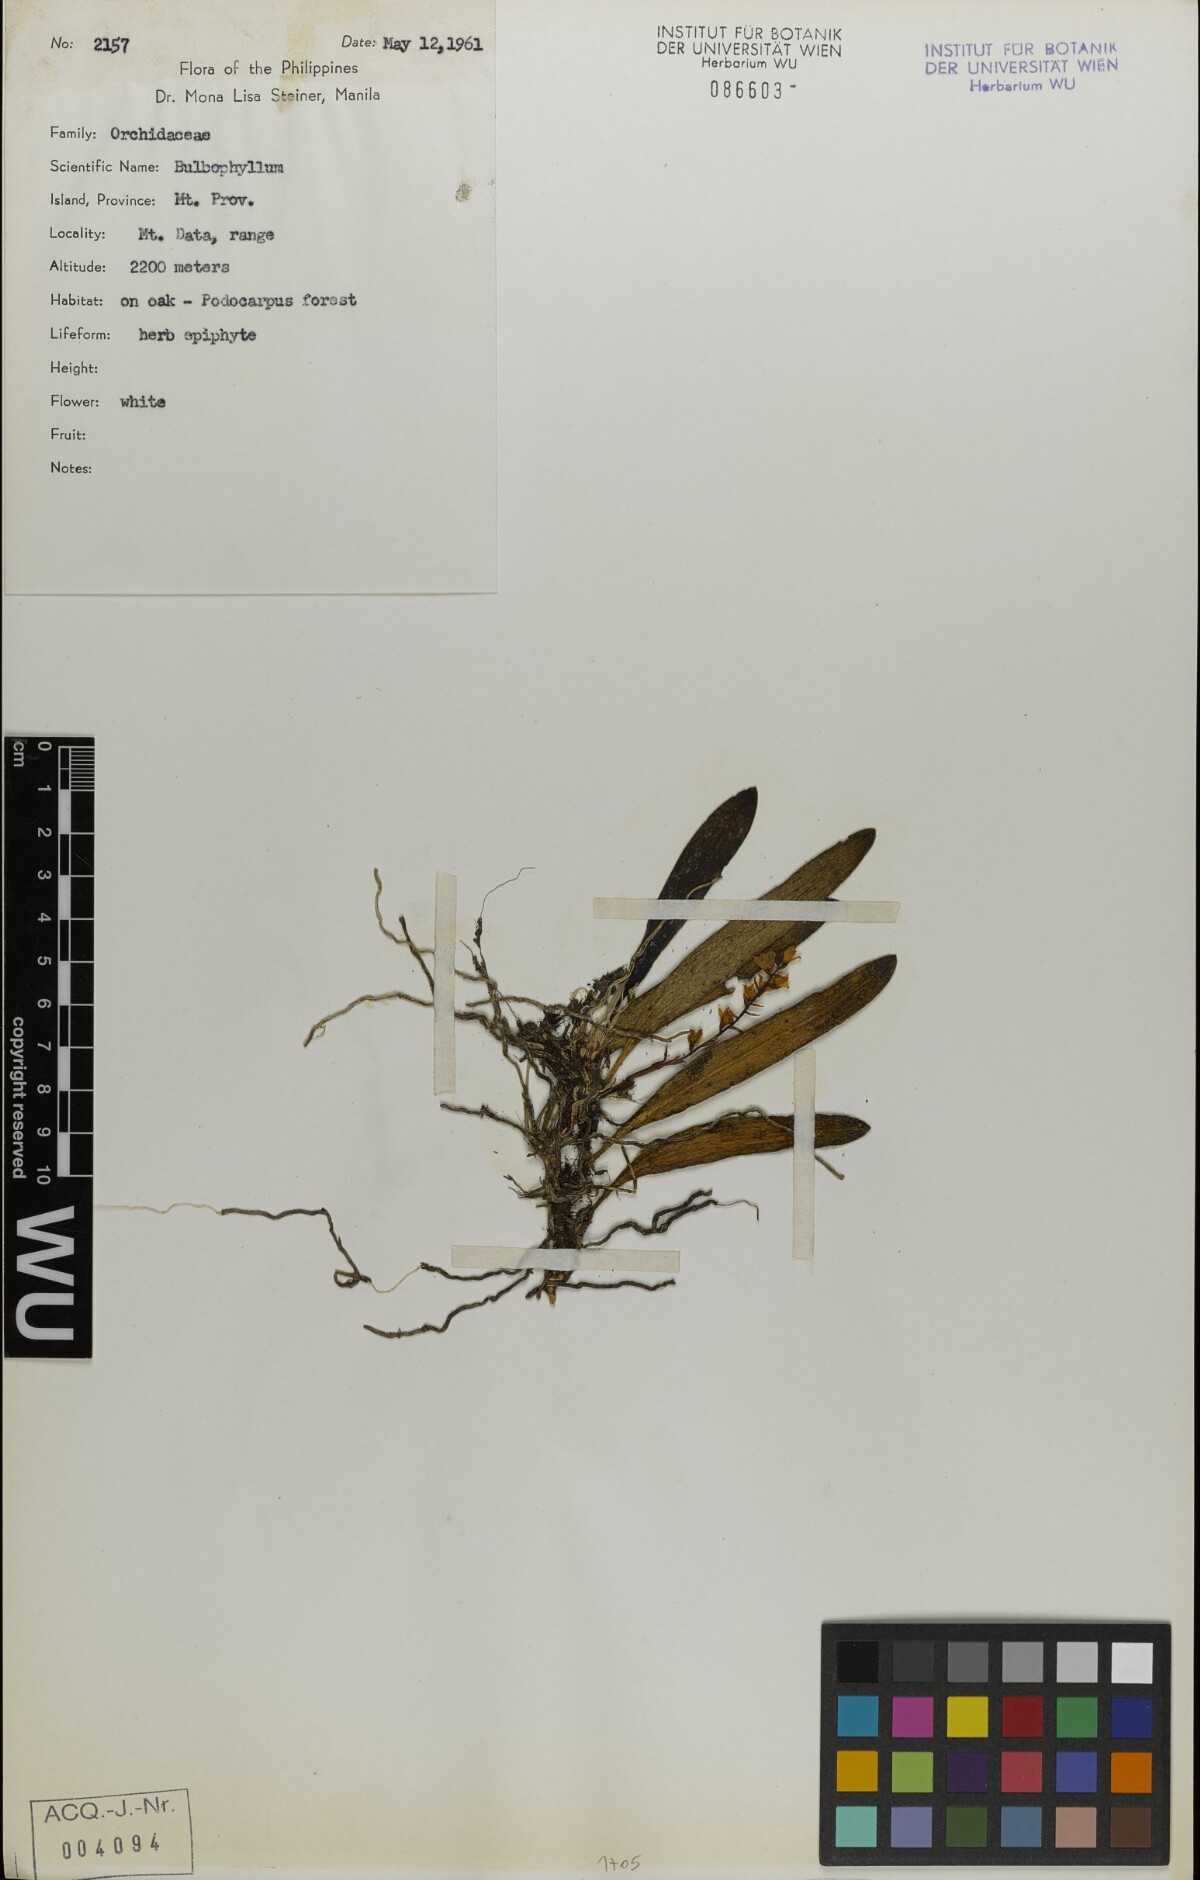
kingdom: Plantae
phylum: Tracheophyta
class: Liliopsida
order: Asparagales
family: Orchidaceae
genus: Bulbophyllum
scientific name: Bulbophyllum
